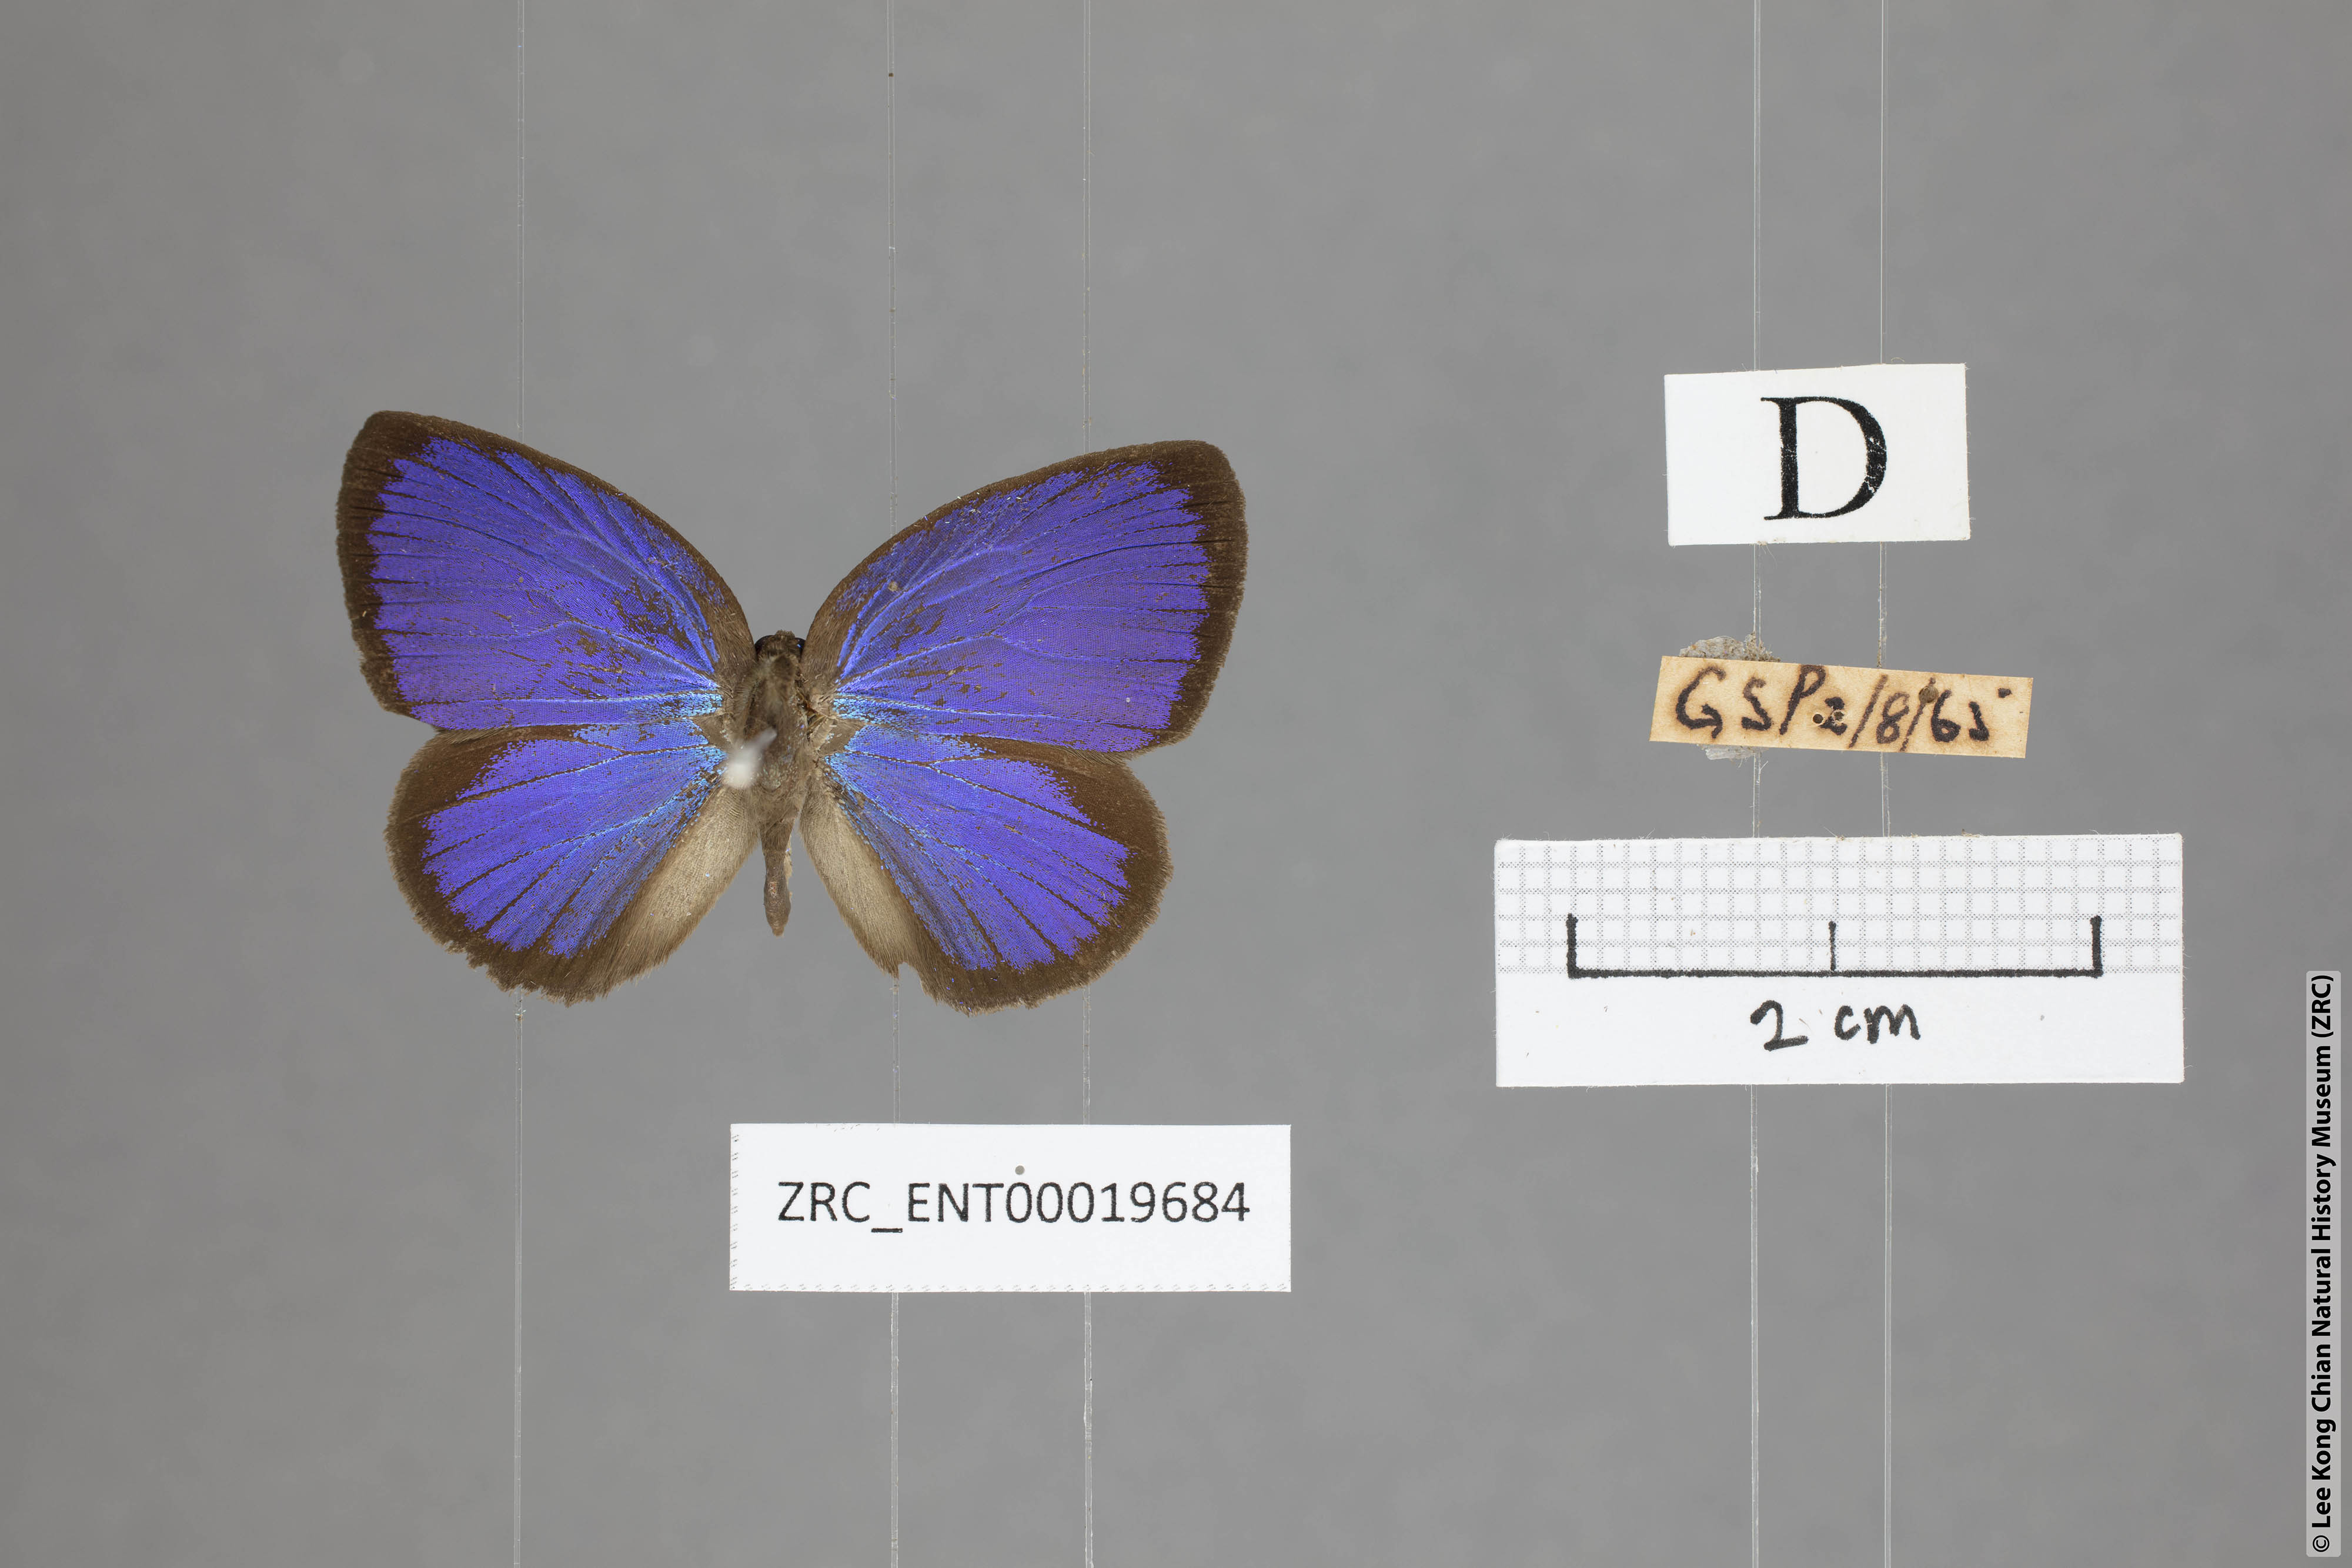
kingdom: Animalia
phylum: Arthropoda
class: Insecta
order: Lepidoptera
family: Lycaenidae
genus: Arhopala
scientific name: Arhopala moorei
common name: Moore's oakblue
